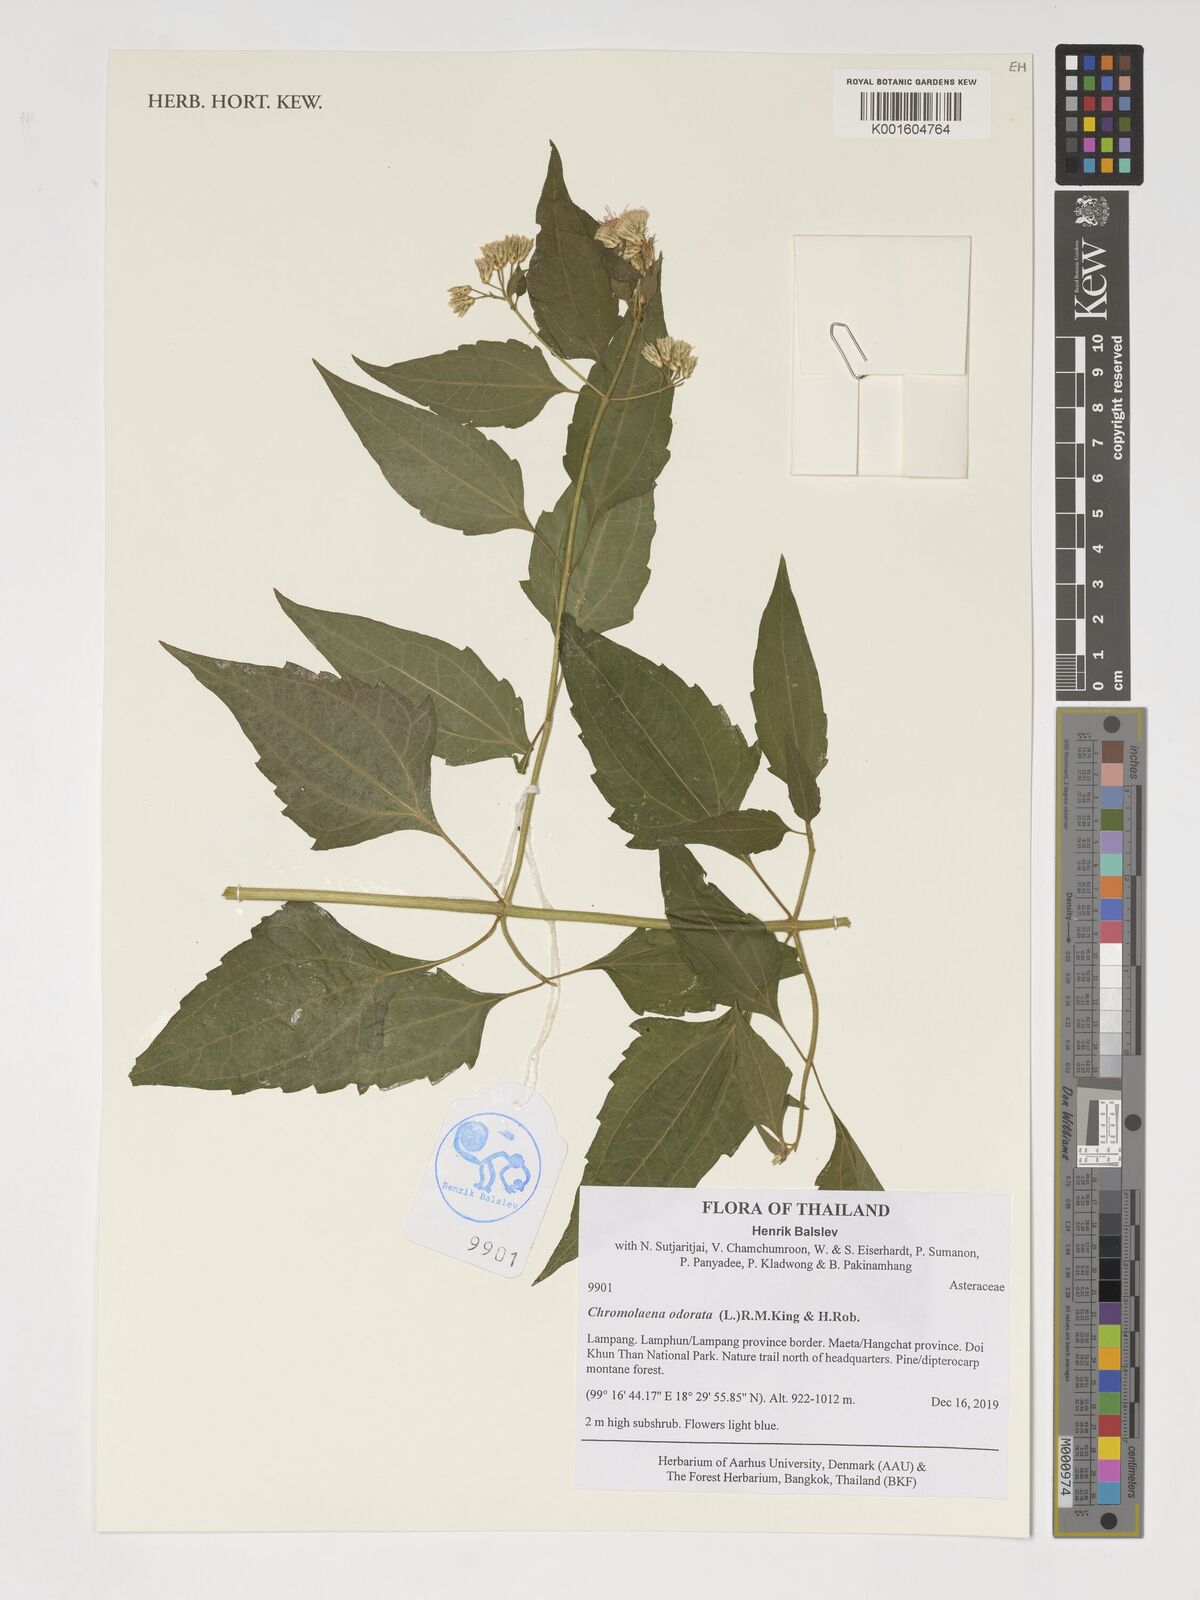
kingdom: Plantae
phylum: Tracheophyta
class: Magnoliopsida
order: Asterales
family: Asteraceae
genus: Chromolaena
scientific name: Chromolaena odorata
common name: Siamweed
